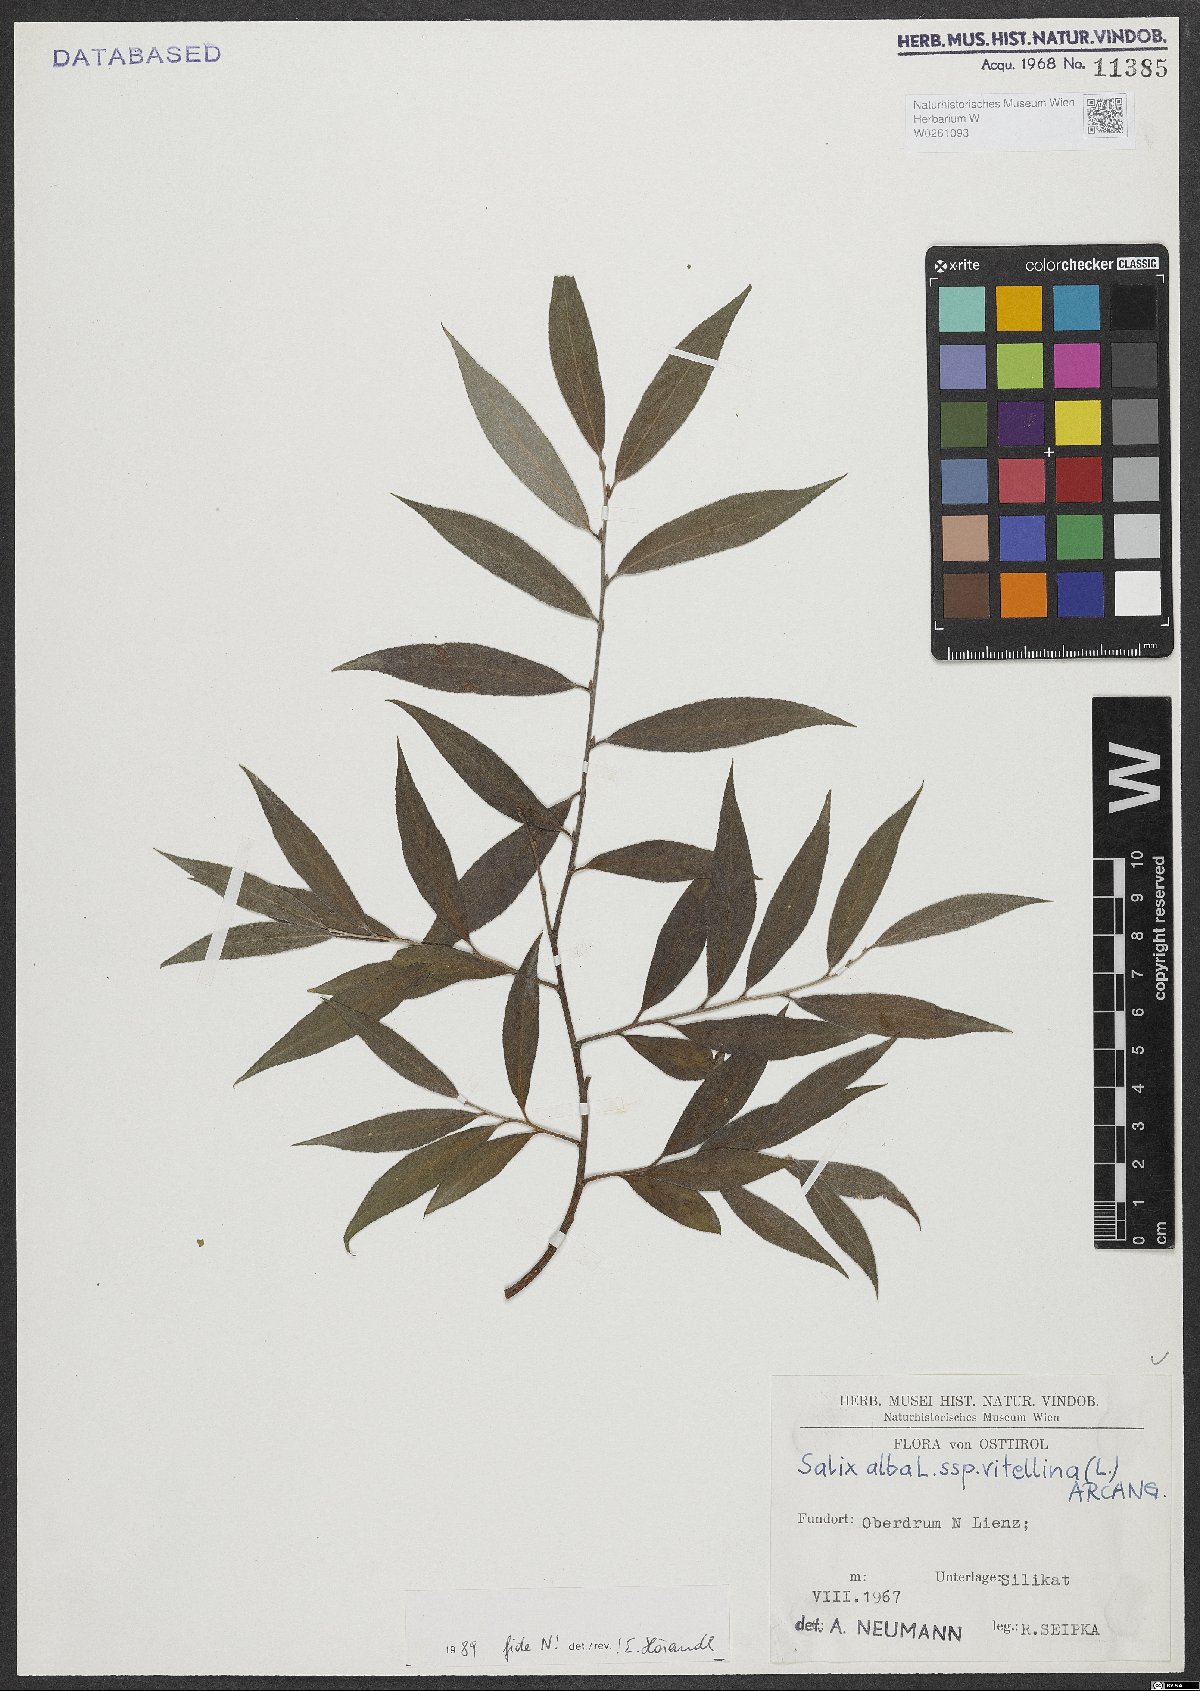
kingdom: Plantae
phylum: Tracheophyta
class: Magnoliopsida
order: Malpighiales
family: Salicaceae
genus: Salix
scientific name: Salix alba
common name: White willow
